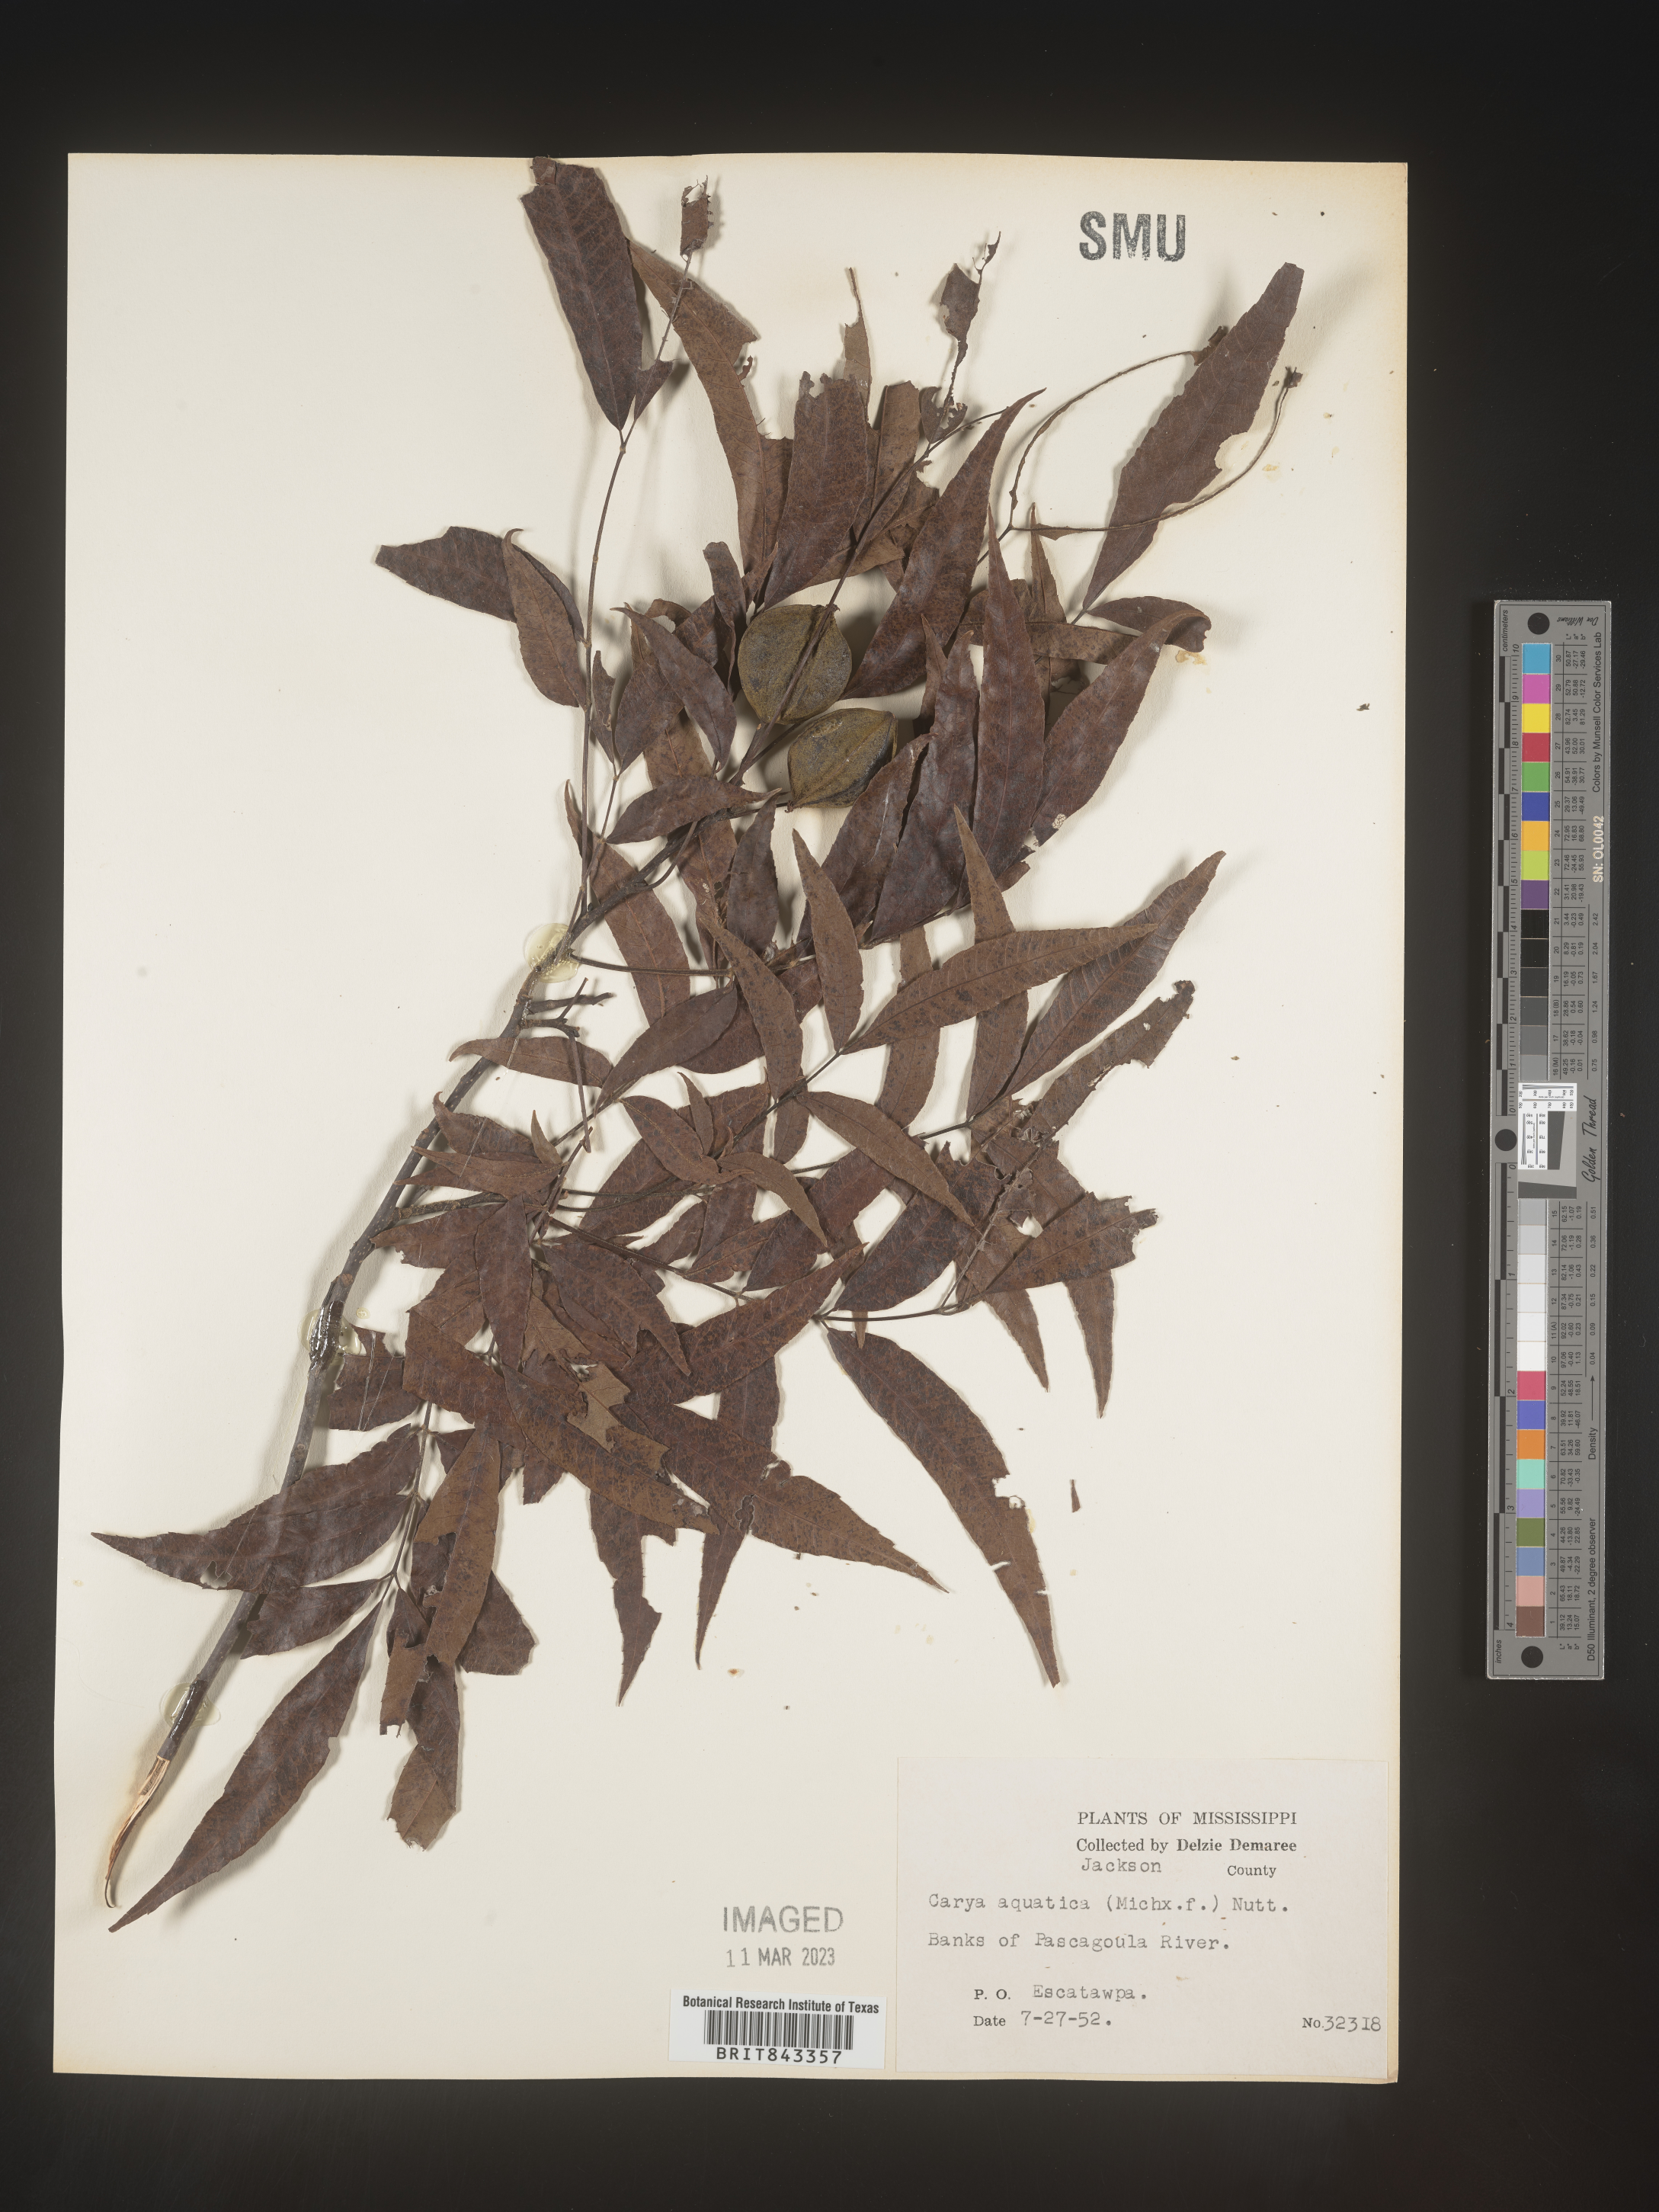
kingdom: Plantae
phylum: Tracheophyta
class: Magnoliopsida
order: Fagales
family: Juglandaceae
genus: Carya
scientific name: Carya aquatica
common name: Water hickory
